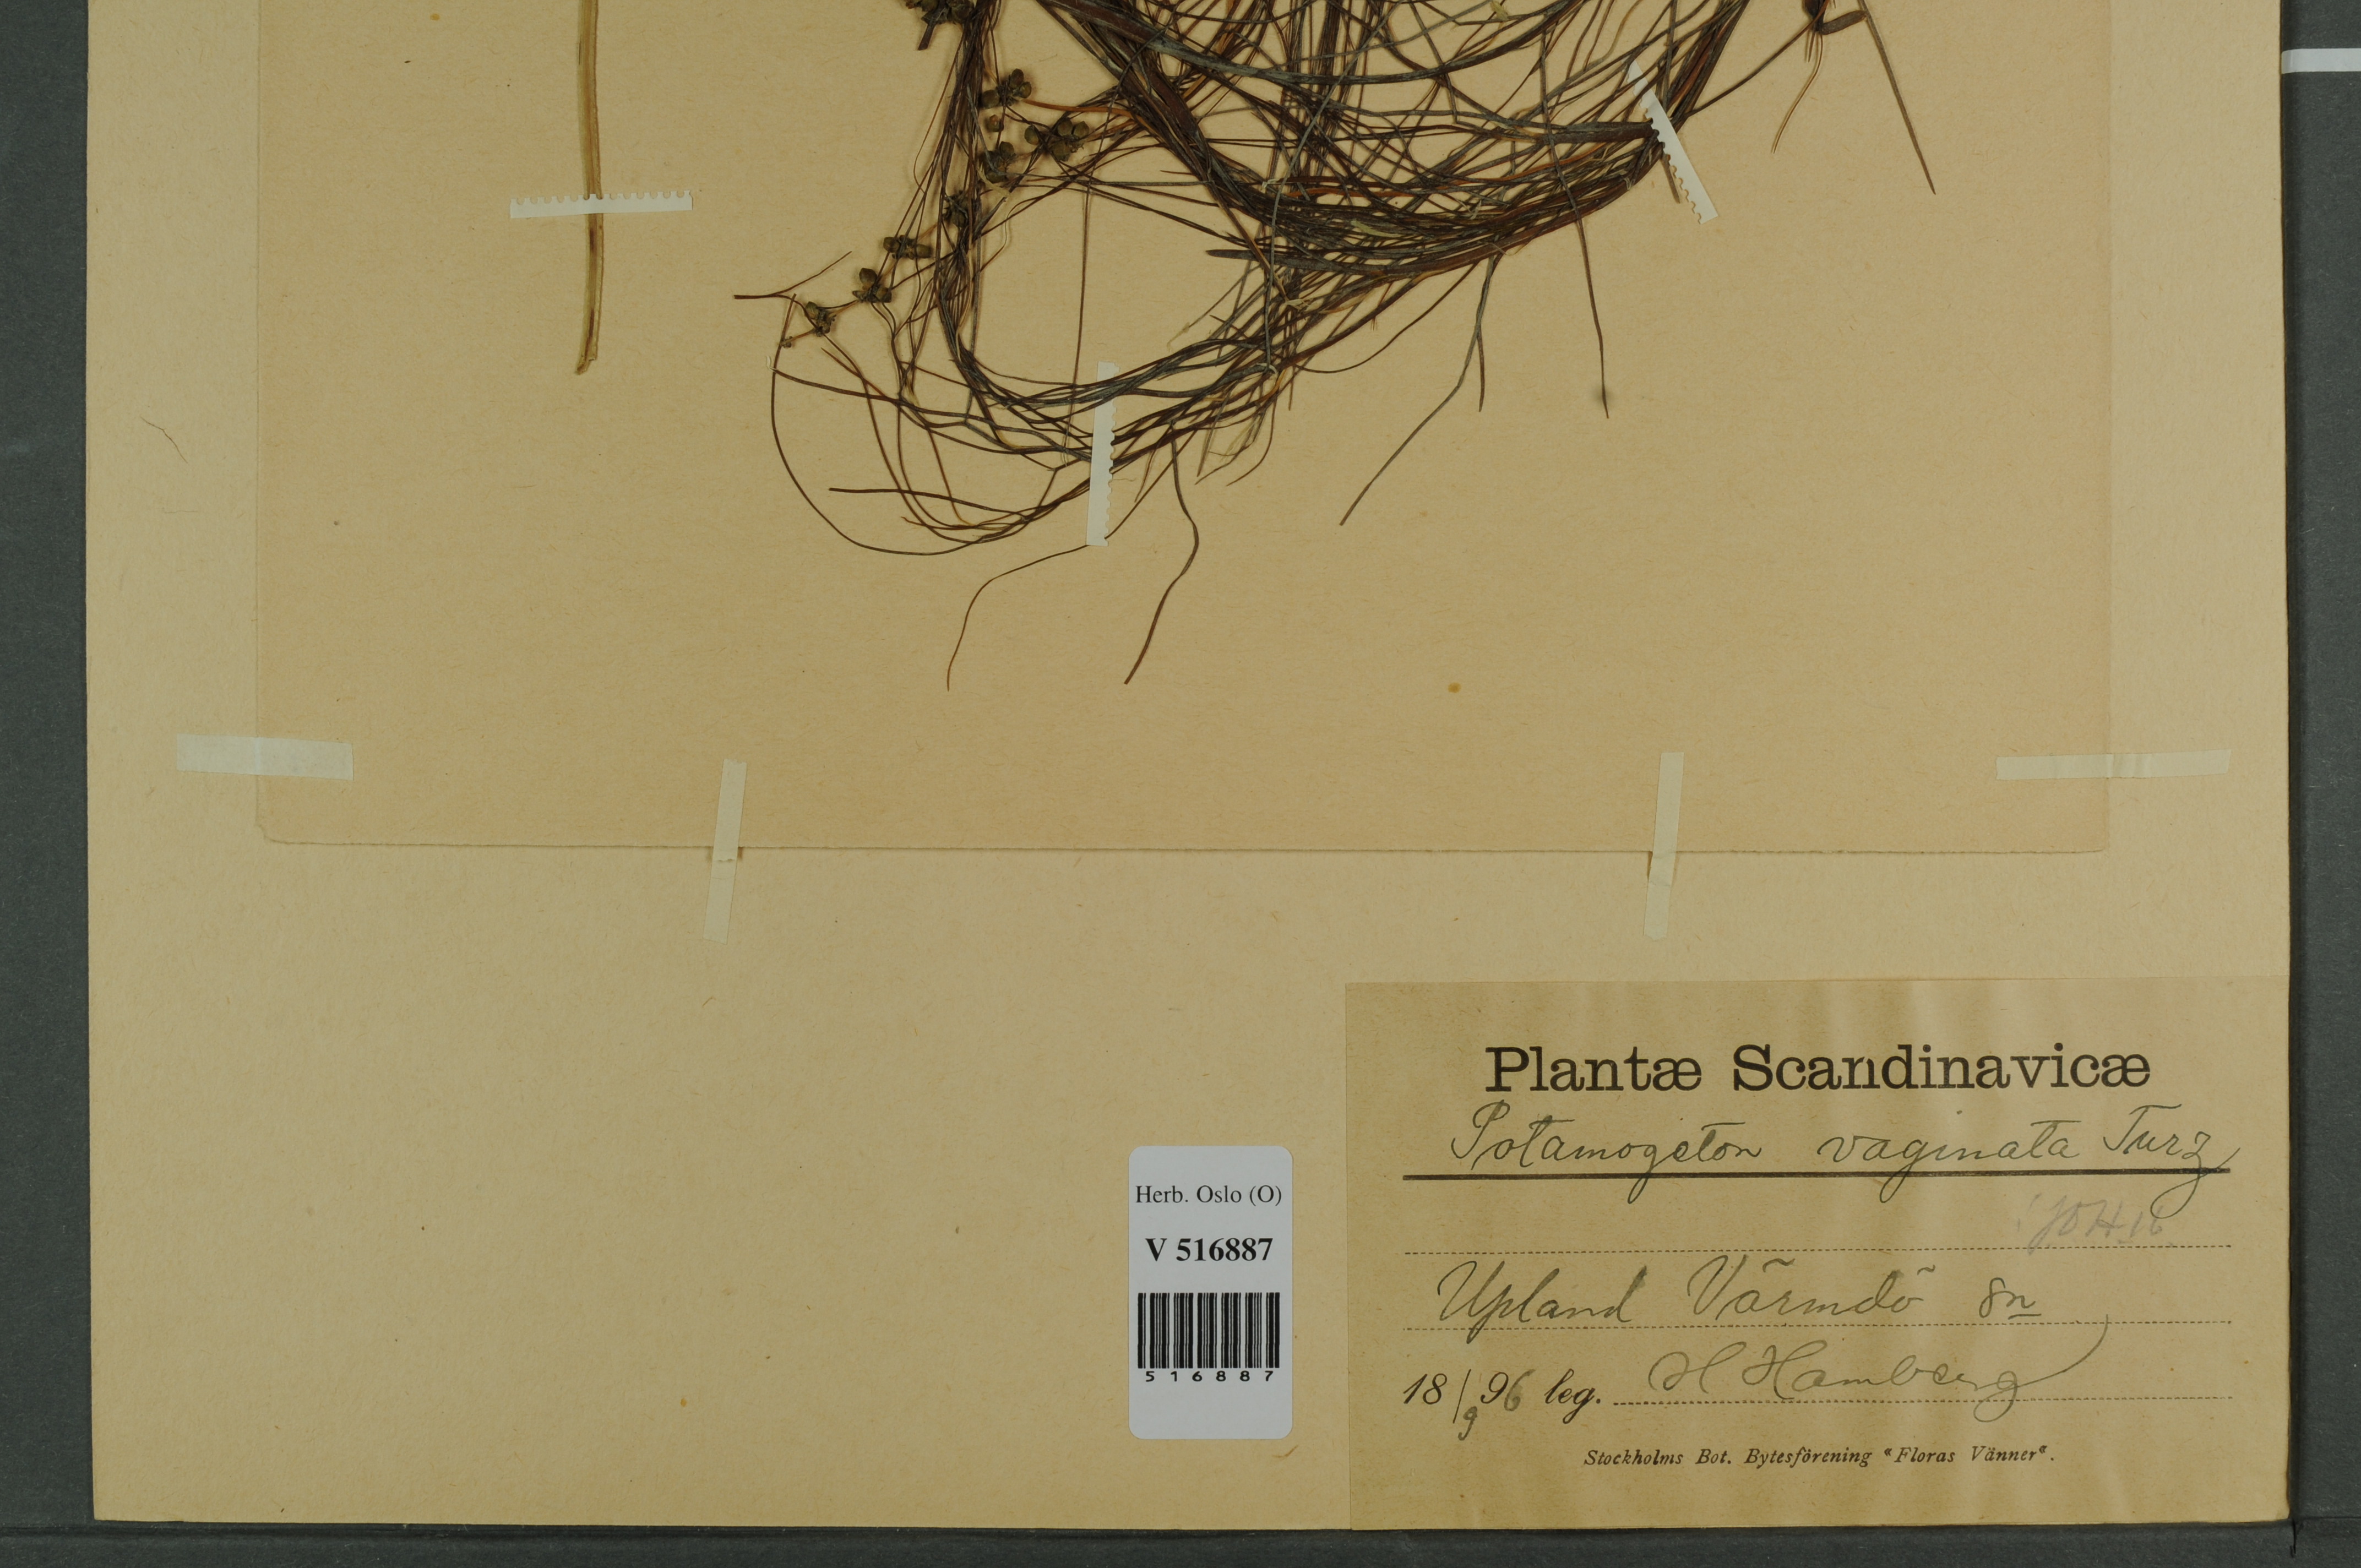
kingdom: Plantae
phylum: Tracheophyta
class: Liliopsida
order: Alismatales
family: Potamogetonaceae
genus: Stuckenia
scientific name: Stuckenia vaginata
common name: Big-sheathed pondweed
